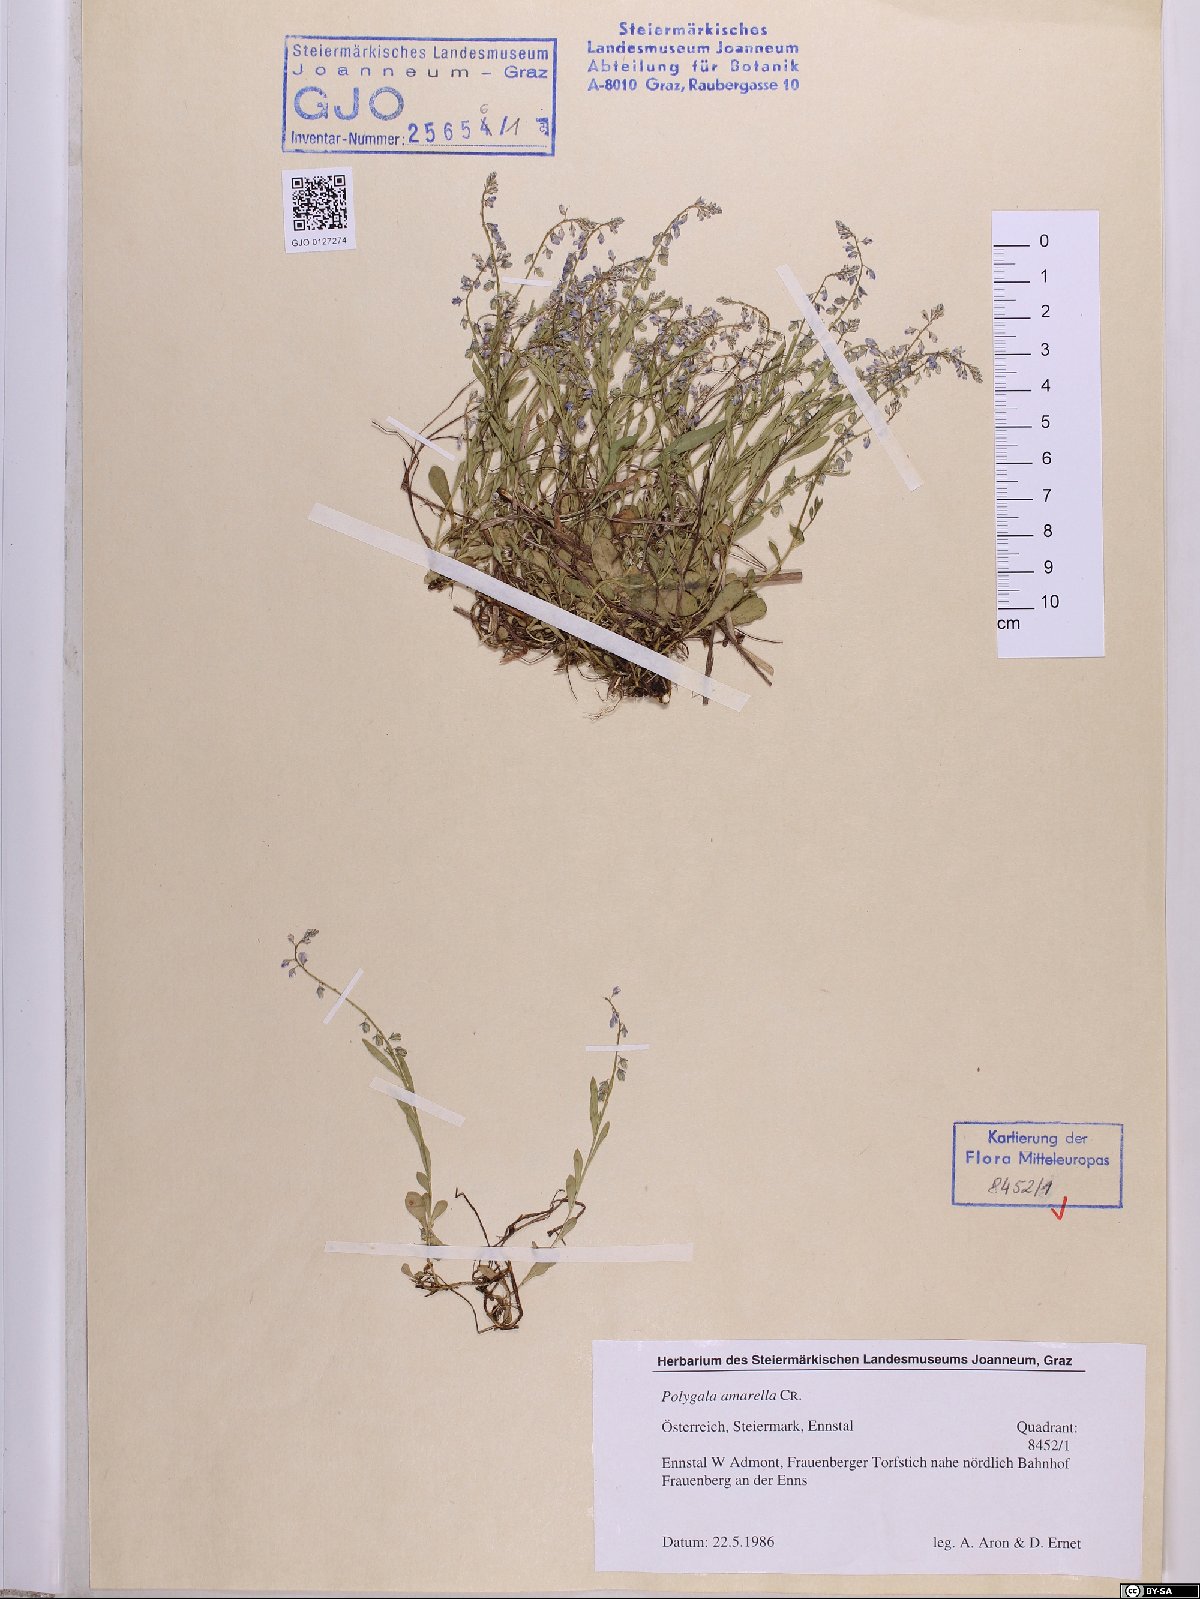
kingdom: Plantae
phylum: Tracheophyta
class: Magnoliopsida
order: Fabales
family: Polygalaceae
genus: Polygala
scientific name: Polygala amarella
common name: Dwarf milkwort
